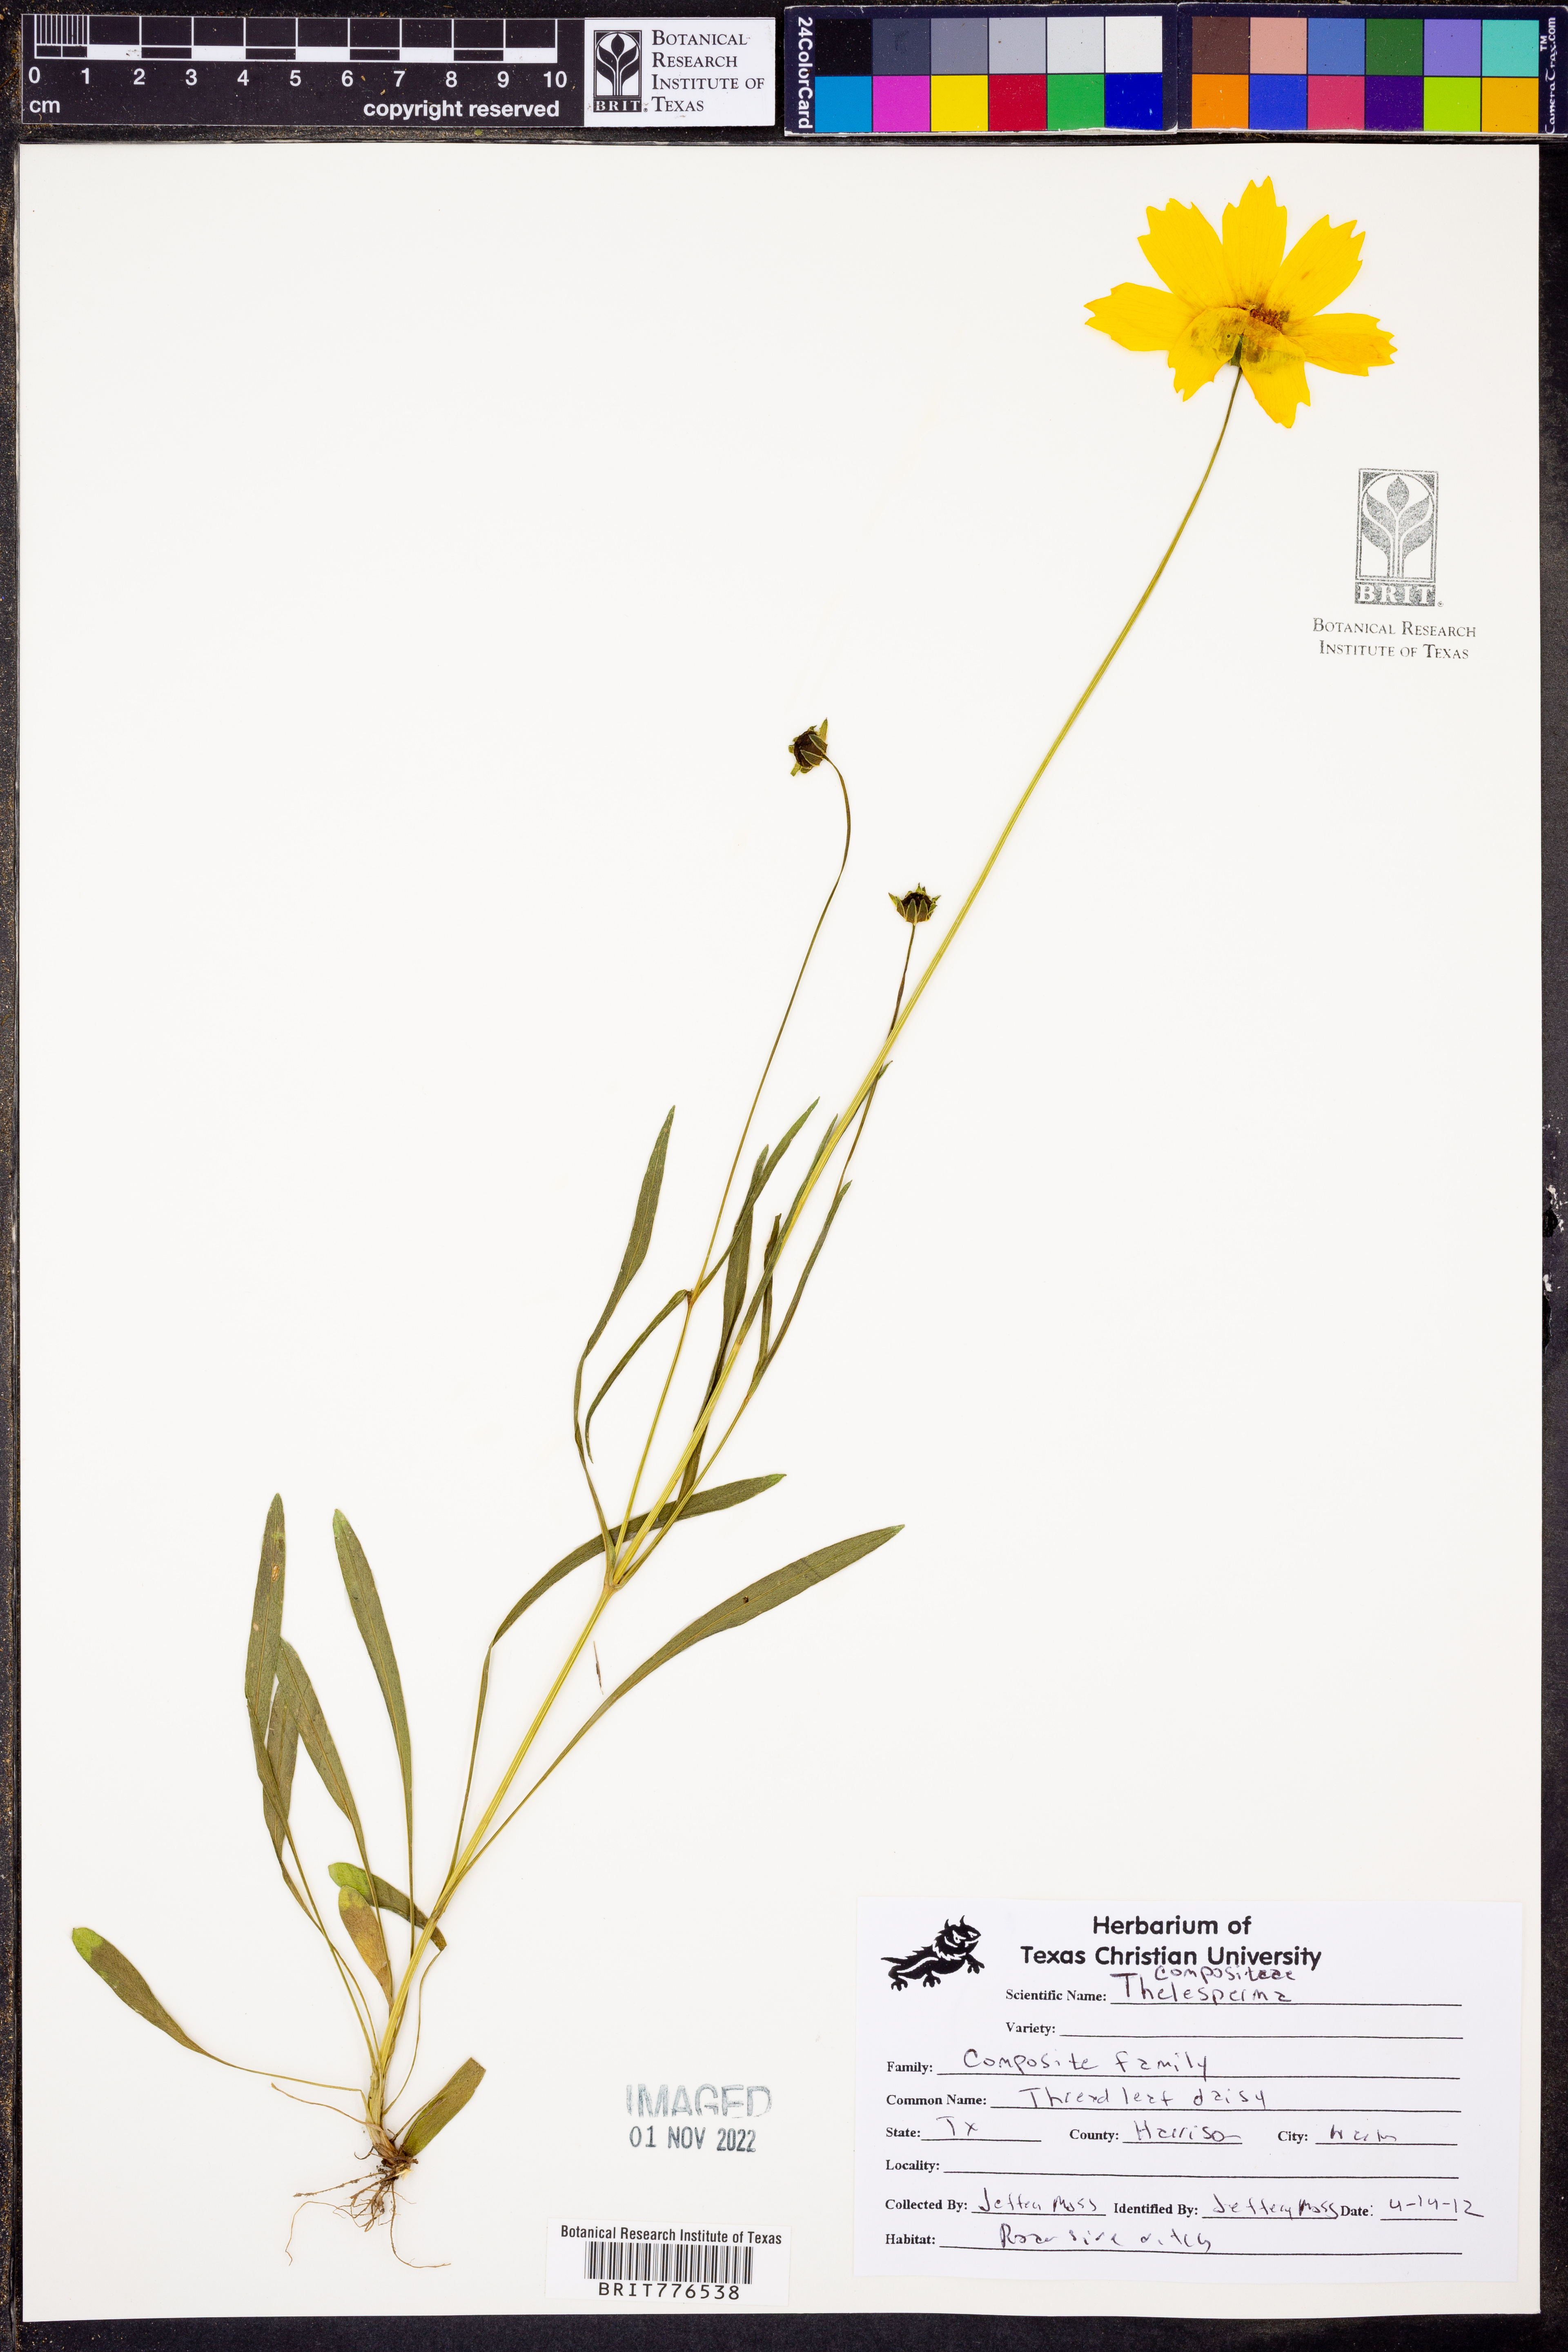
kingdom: Plantae
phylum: Tracheophyta
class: Magnoliopsida
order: Asterales
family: Asteraceae
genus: Thelesperma
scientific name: Thelesperma
